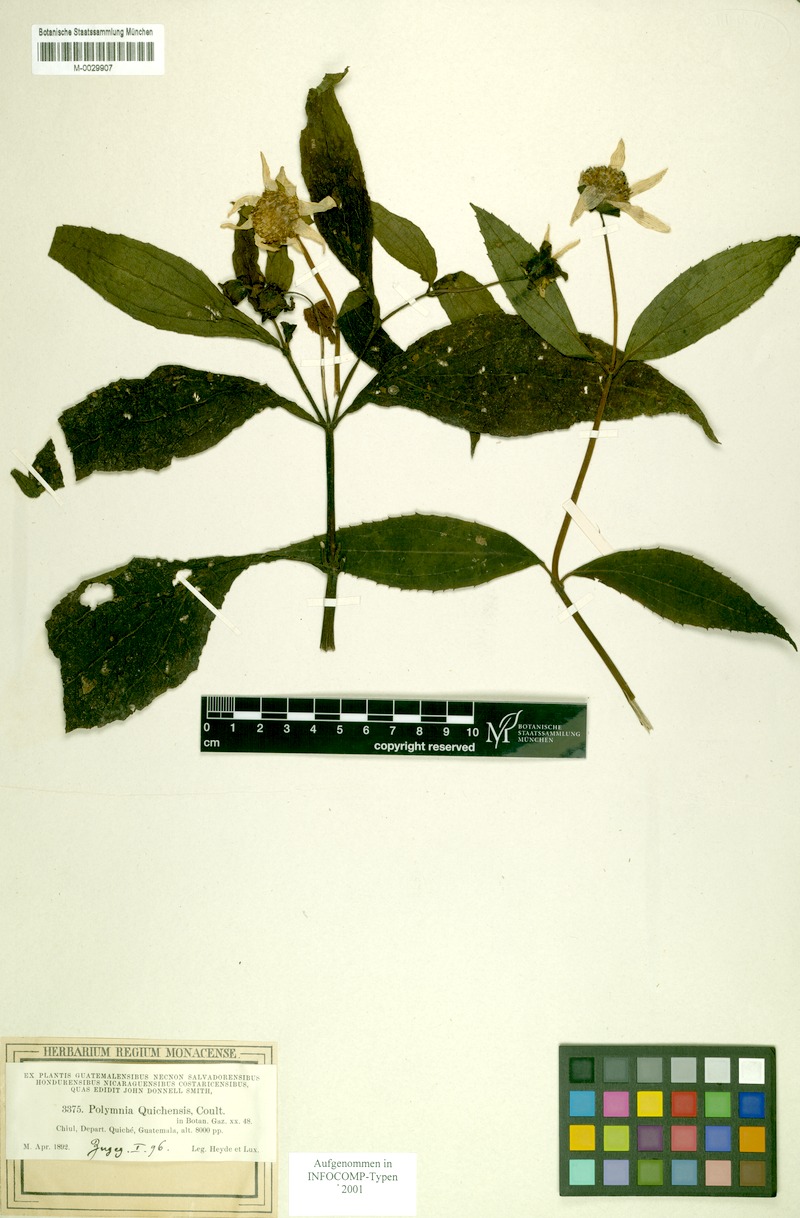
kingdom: Plantae
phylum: Tracheophyta
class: Magnoliopsida
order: Asterales
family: Asteraceae
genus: Smallanthus
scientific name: Smallanthus quichensis
